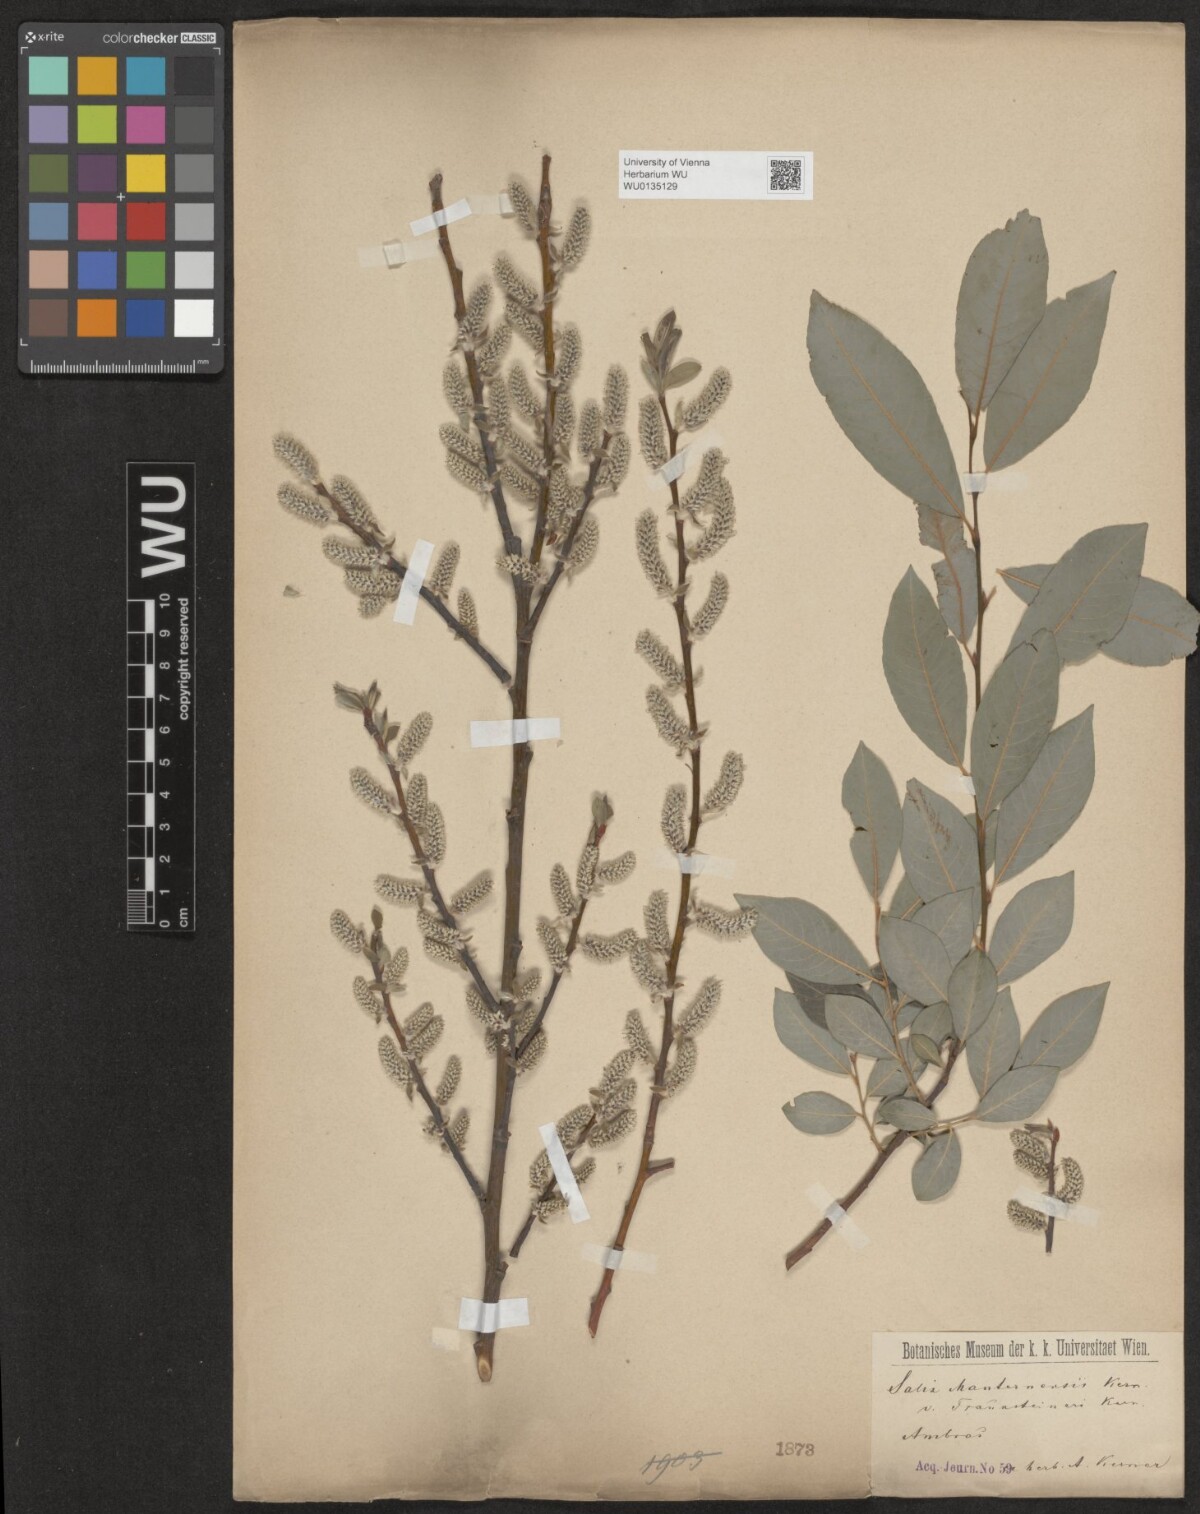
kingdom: Plantae
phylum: Tracheophyta
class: Magnoliopsida
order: Malpighiales
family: Salicaceae
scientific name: Salicaceae
